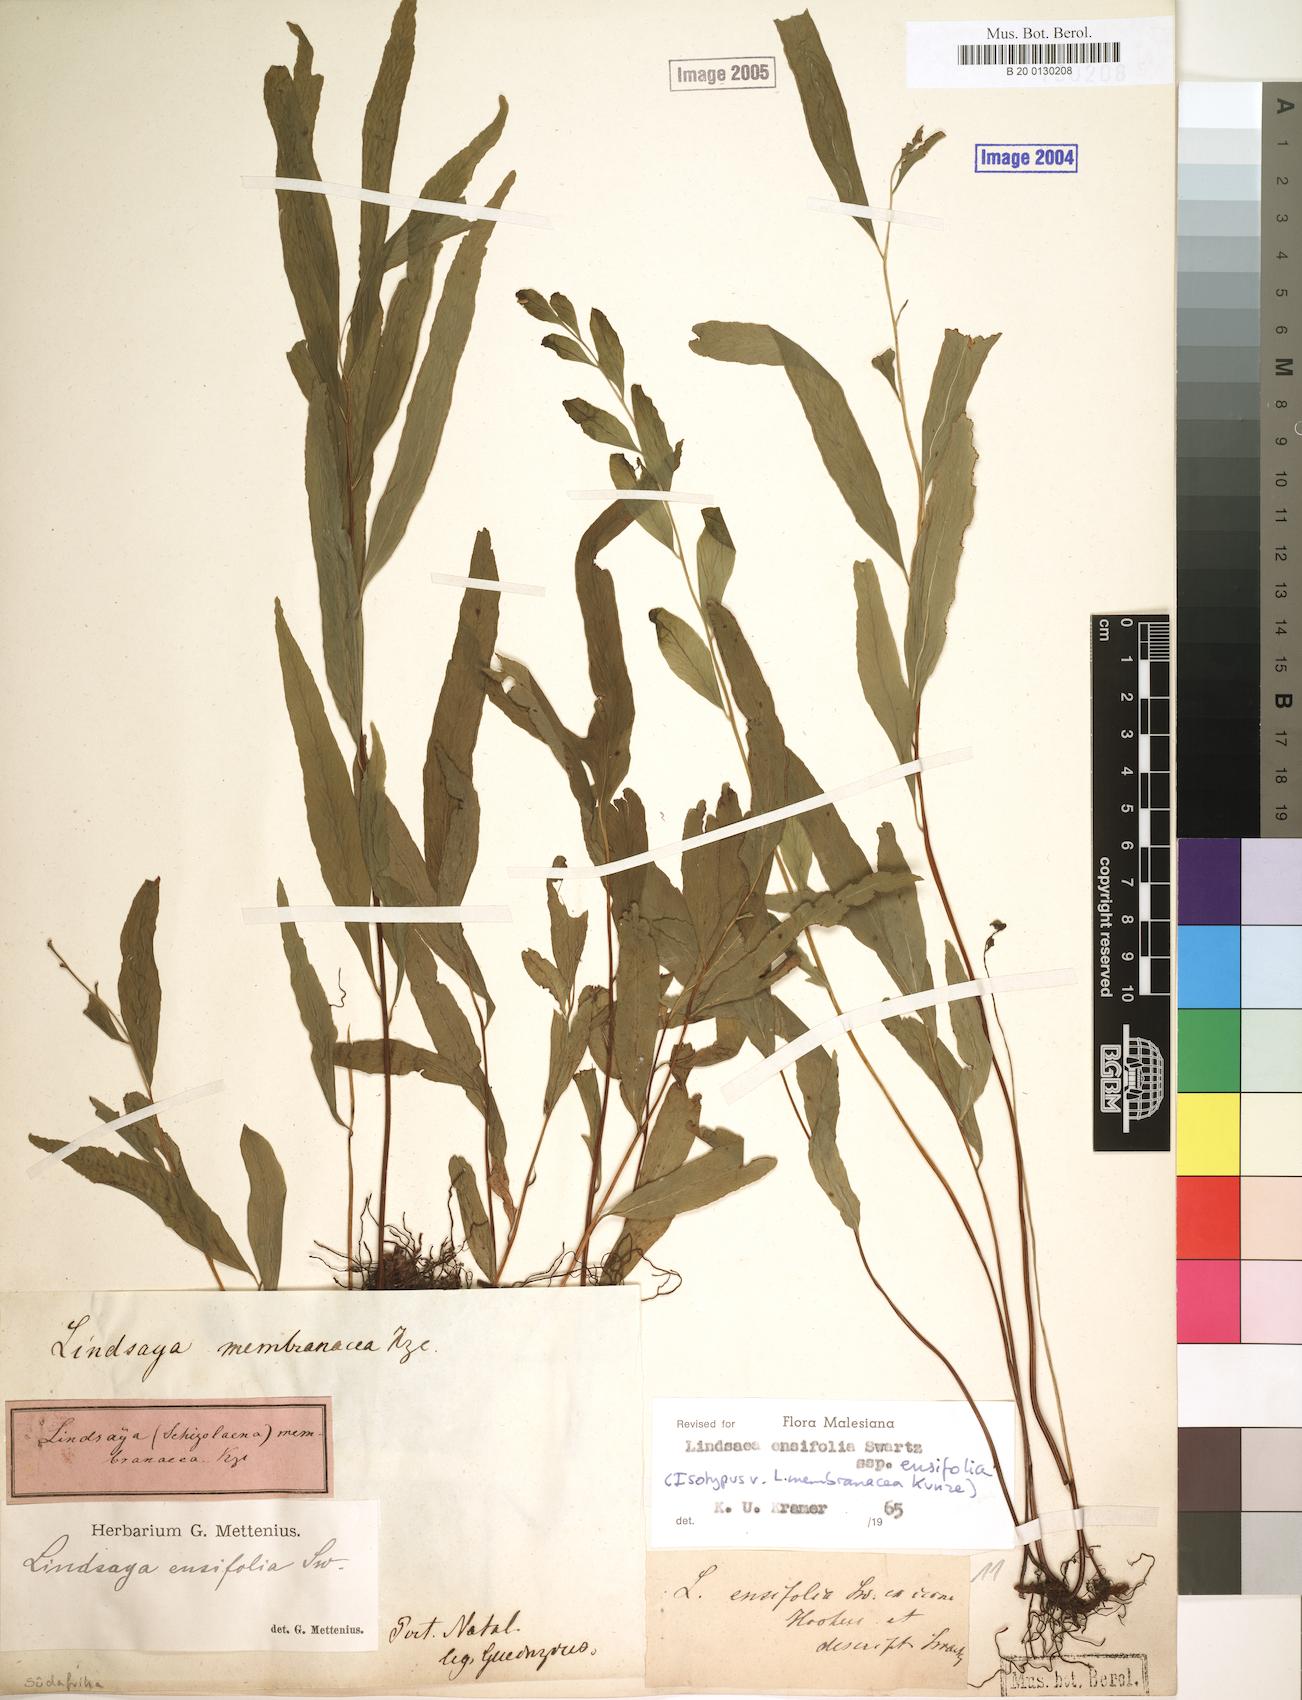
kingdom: Plantae
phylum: Tracheophyta
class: Polypodiopsida
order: Polypodiales
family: Lindsaeaceae
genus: Lindsaea
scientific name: Lindsaea ensifolia
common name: Graceful necklace fern
